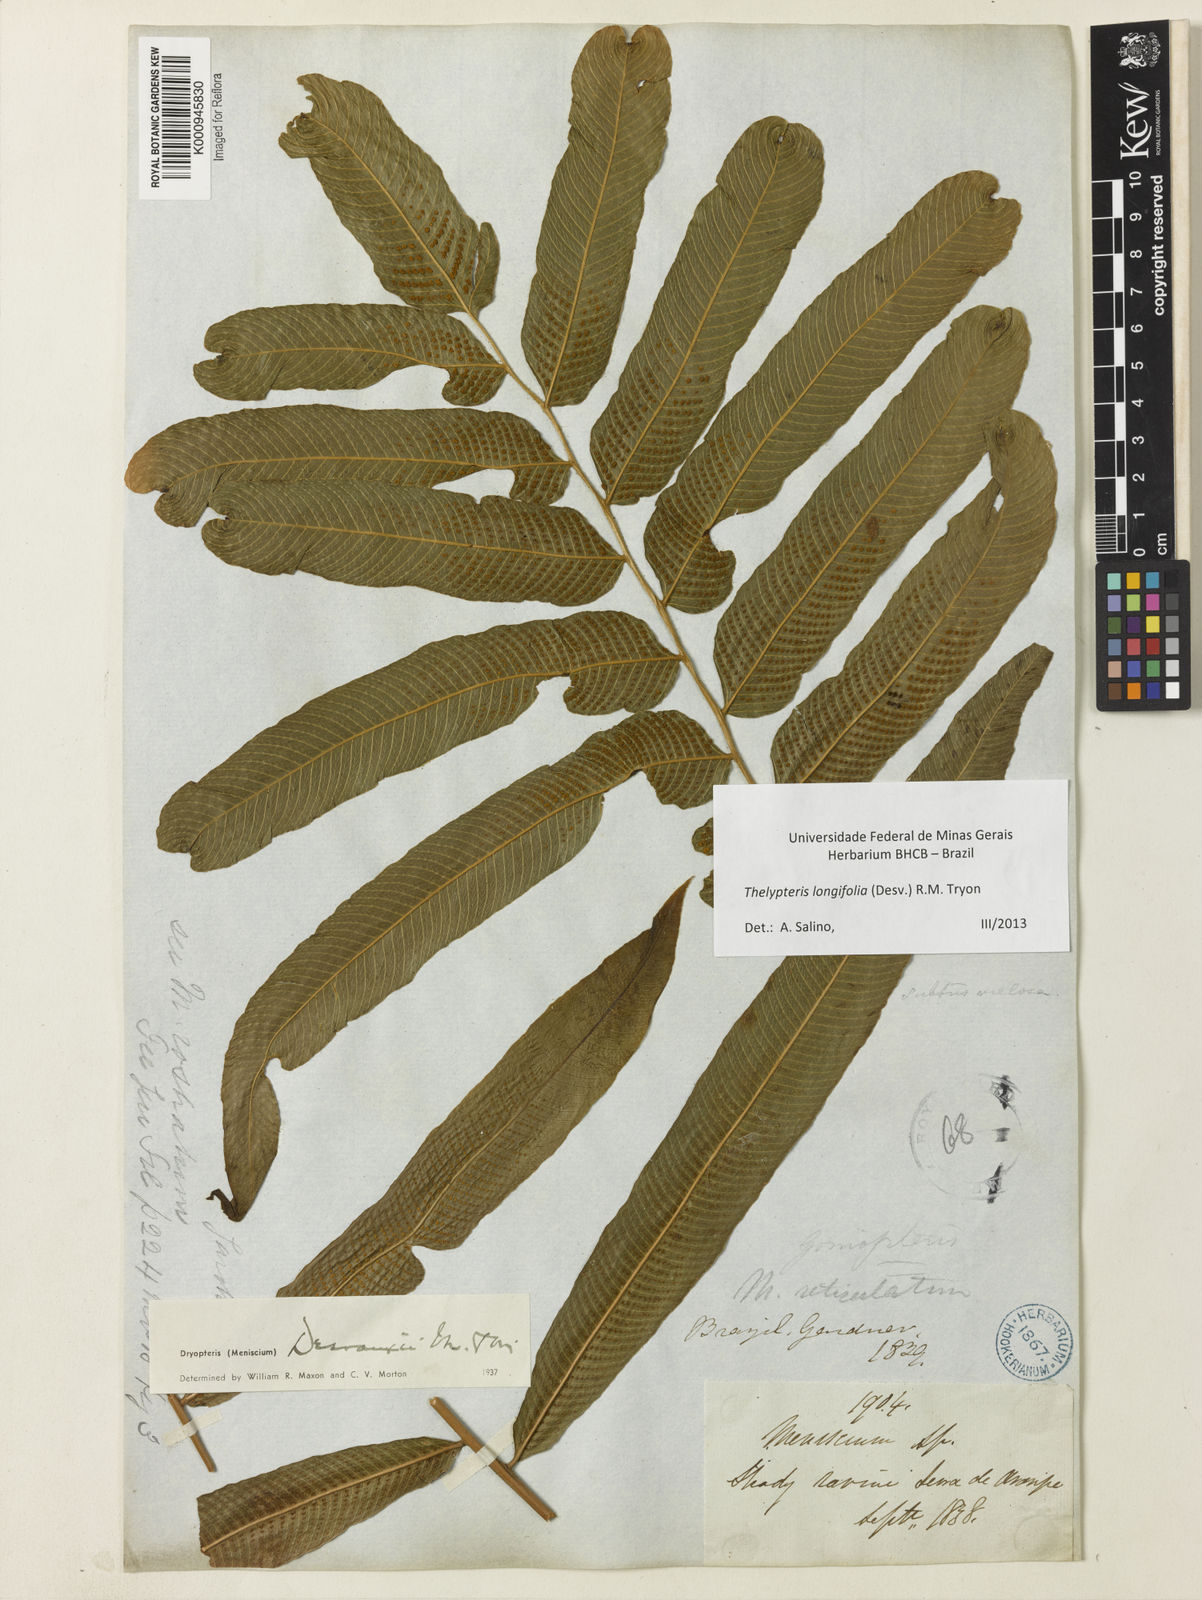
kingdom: Plantae
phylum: Tracheophyta
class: Polypodiopsida
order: Polypodiales
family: Thelypteridaceae
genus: Meniscium
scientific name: Meniscium longifolium
